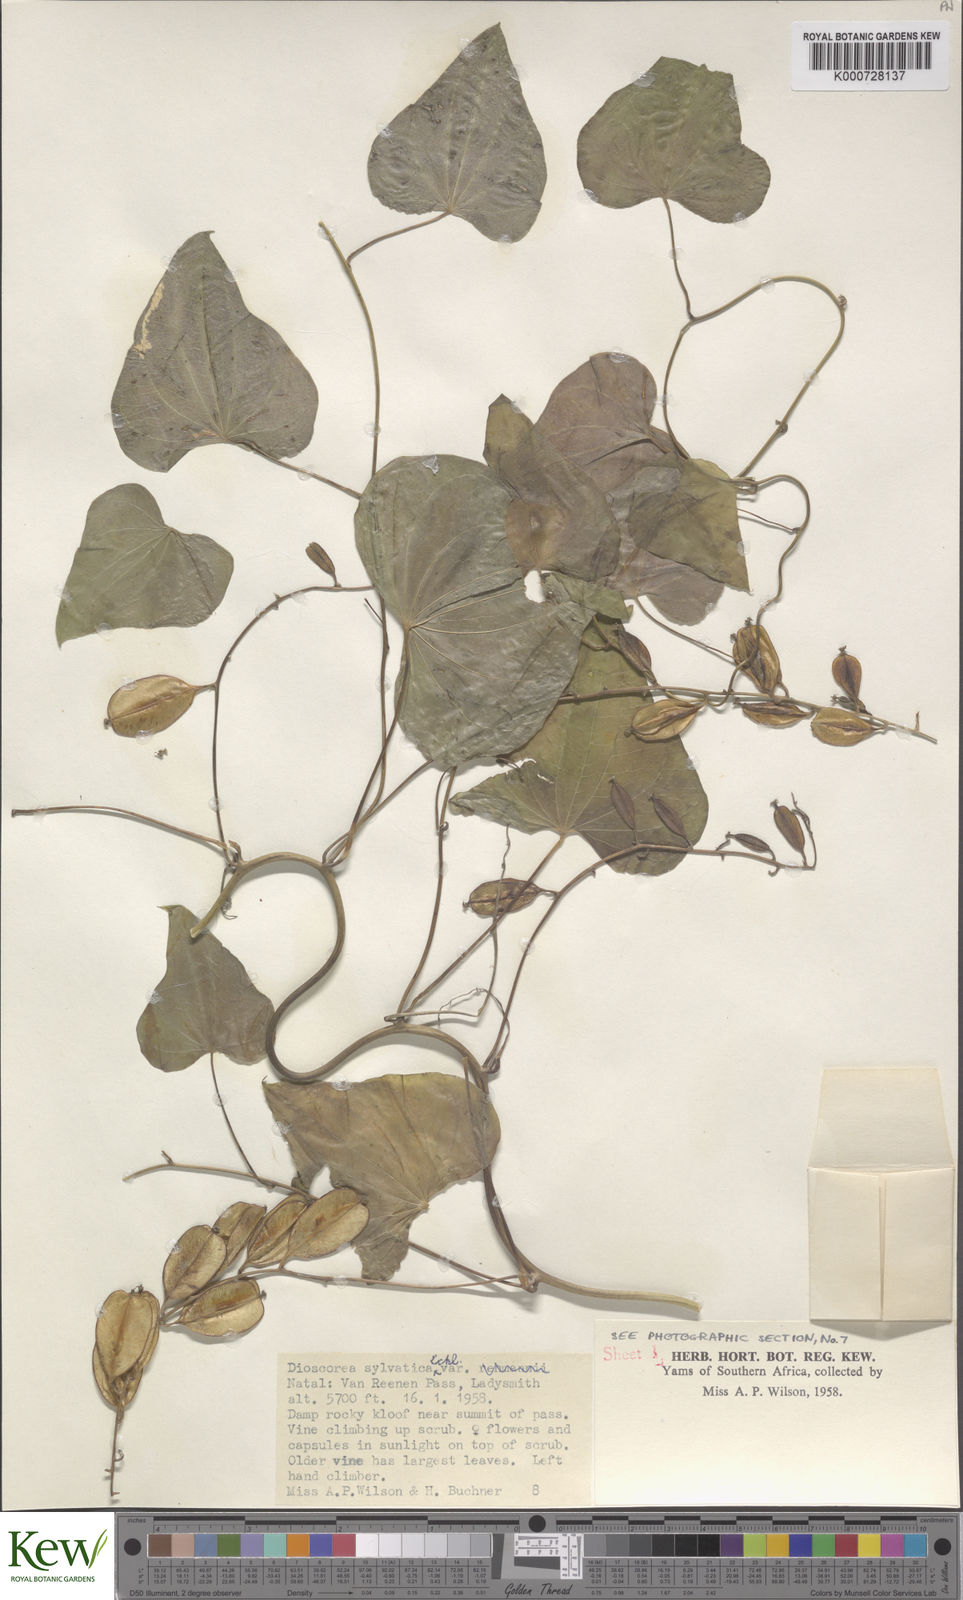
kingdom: Plantae
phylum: Tracheophyta
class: Liliopsida
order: Dioscoreales
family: Dioscoreaceae
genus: Dioscorea
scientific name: Dioscorea sylvatica
